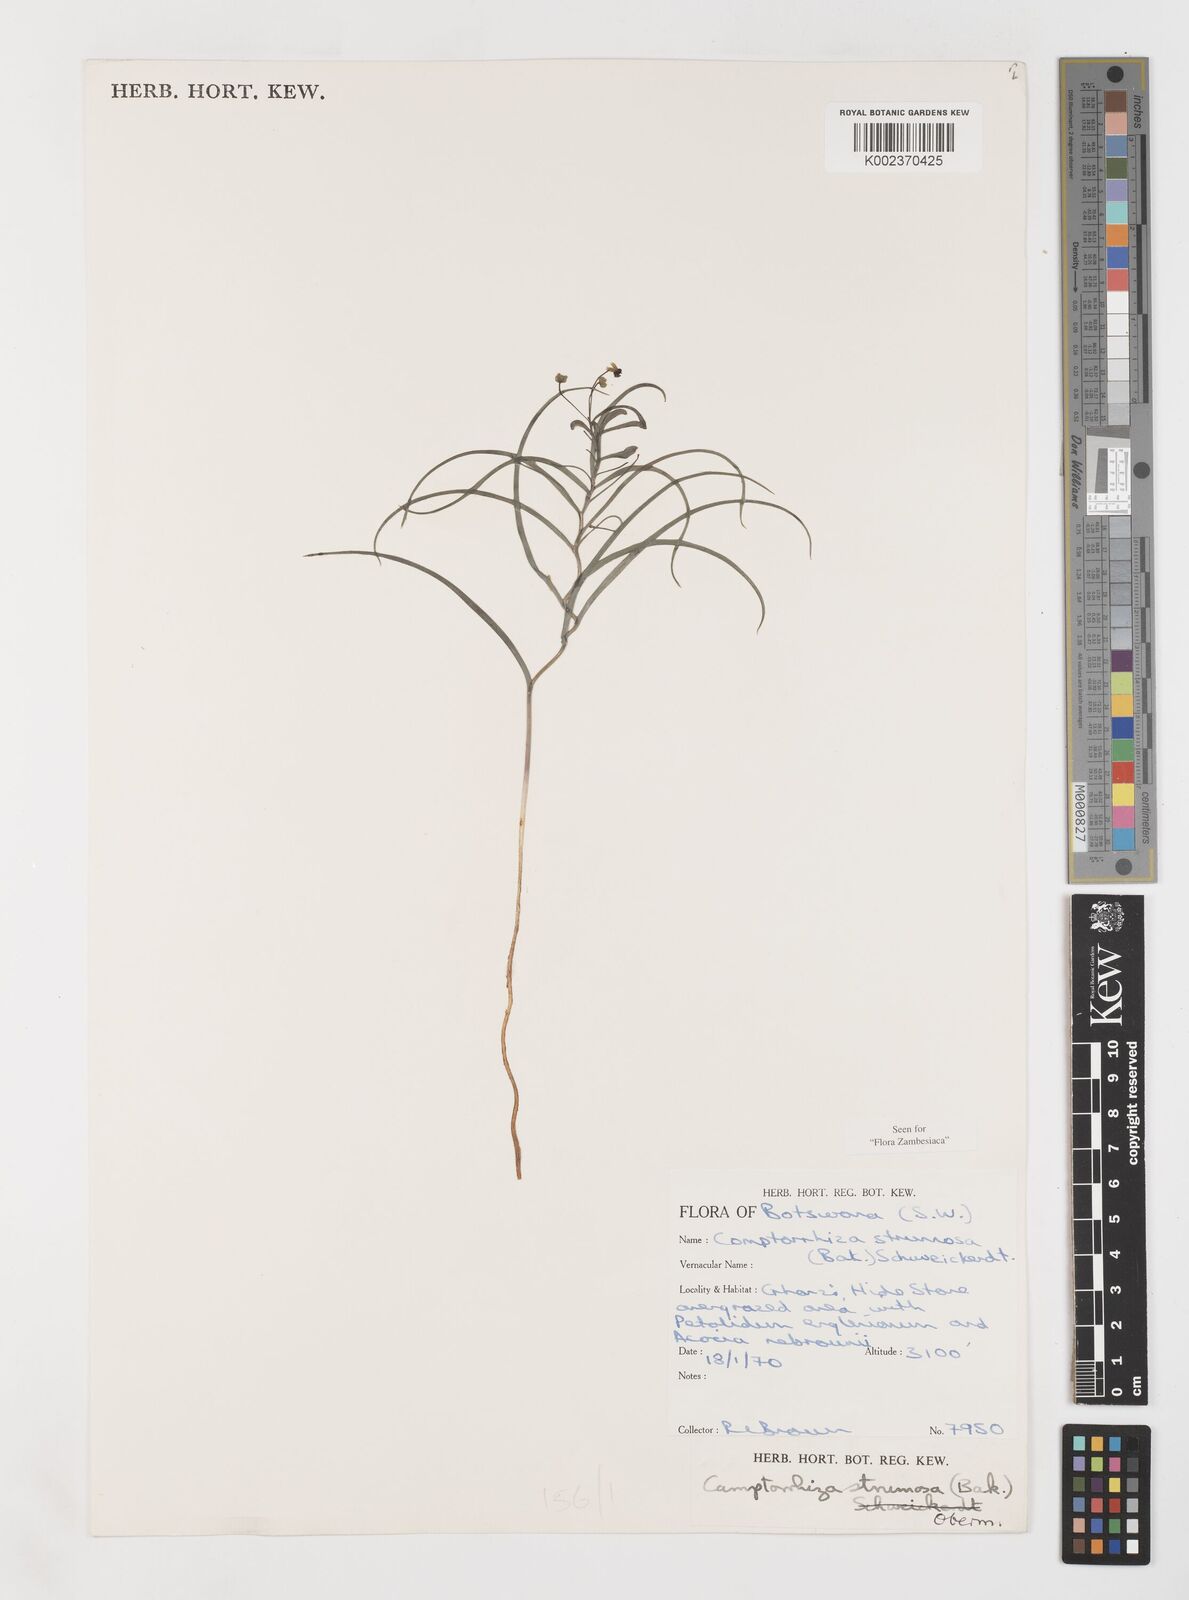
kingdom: Plantae
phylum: Tracheophyta
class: Liliopsida
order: Liliales
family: Colchicaceae
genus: Camptorrhiza
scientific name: Camptorrhiza strumosa
